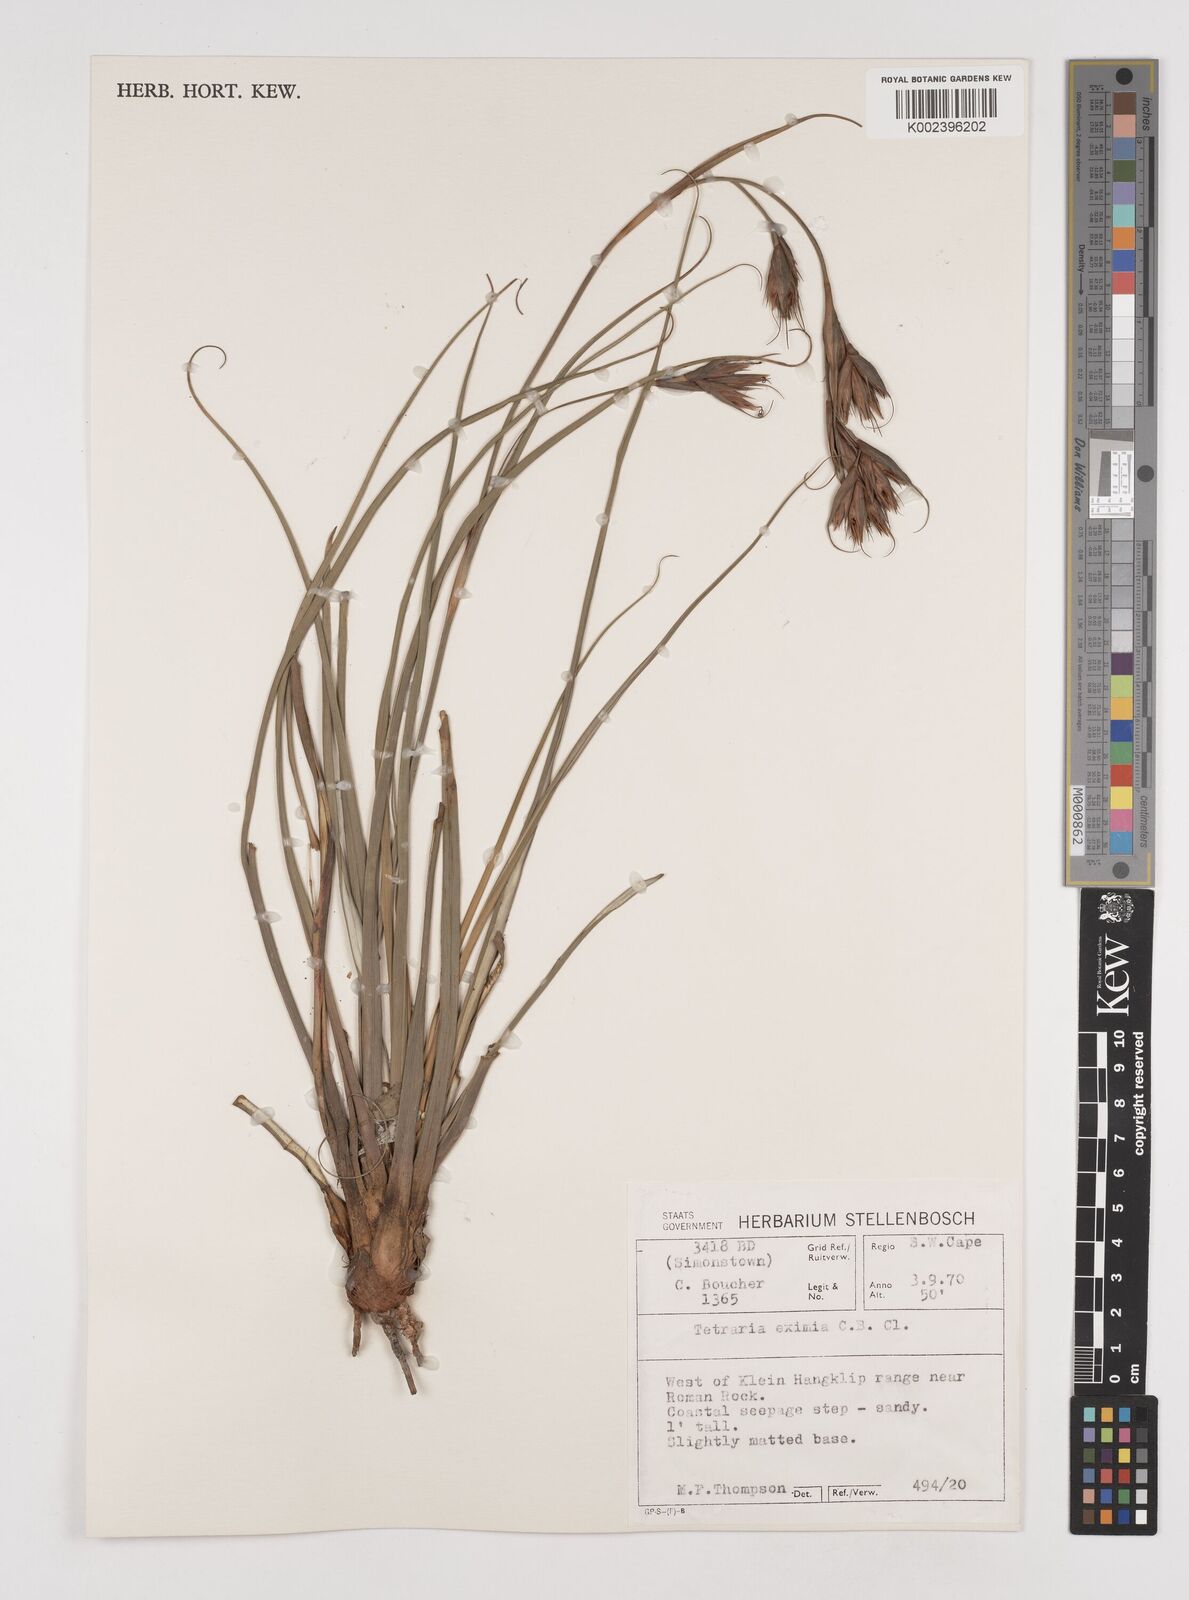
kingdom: Plantae
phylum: Tracheophyta
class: Liliopsida
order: Poales
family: Cyperaceae
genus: Tetraria
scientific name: Tetraria eximia
